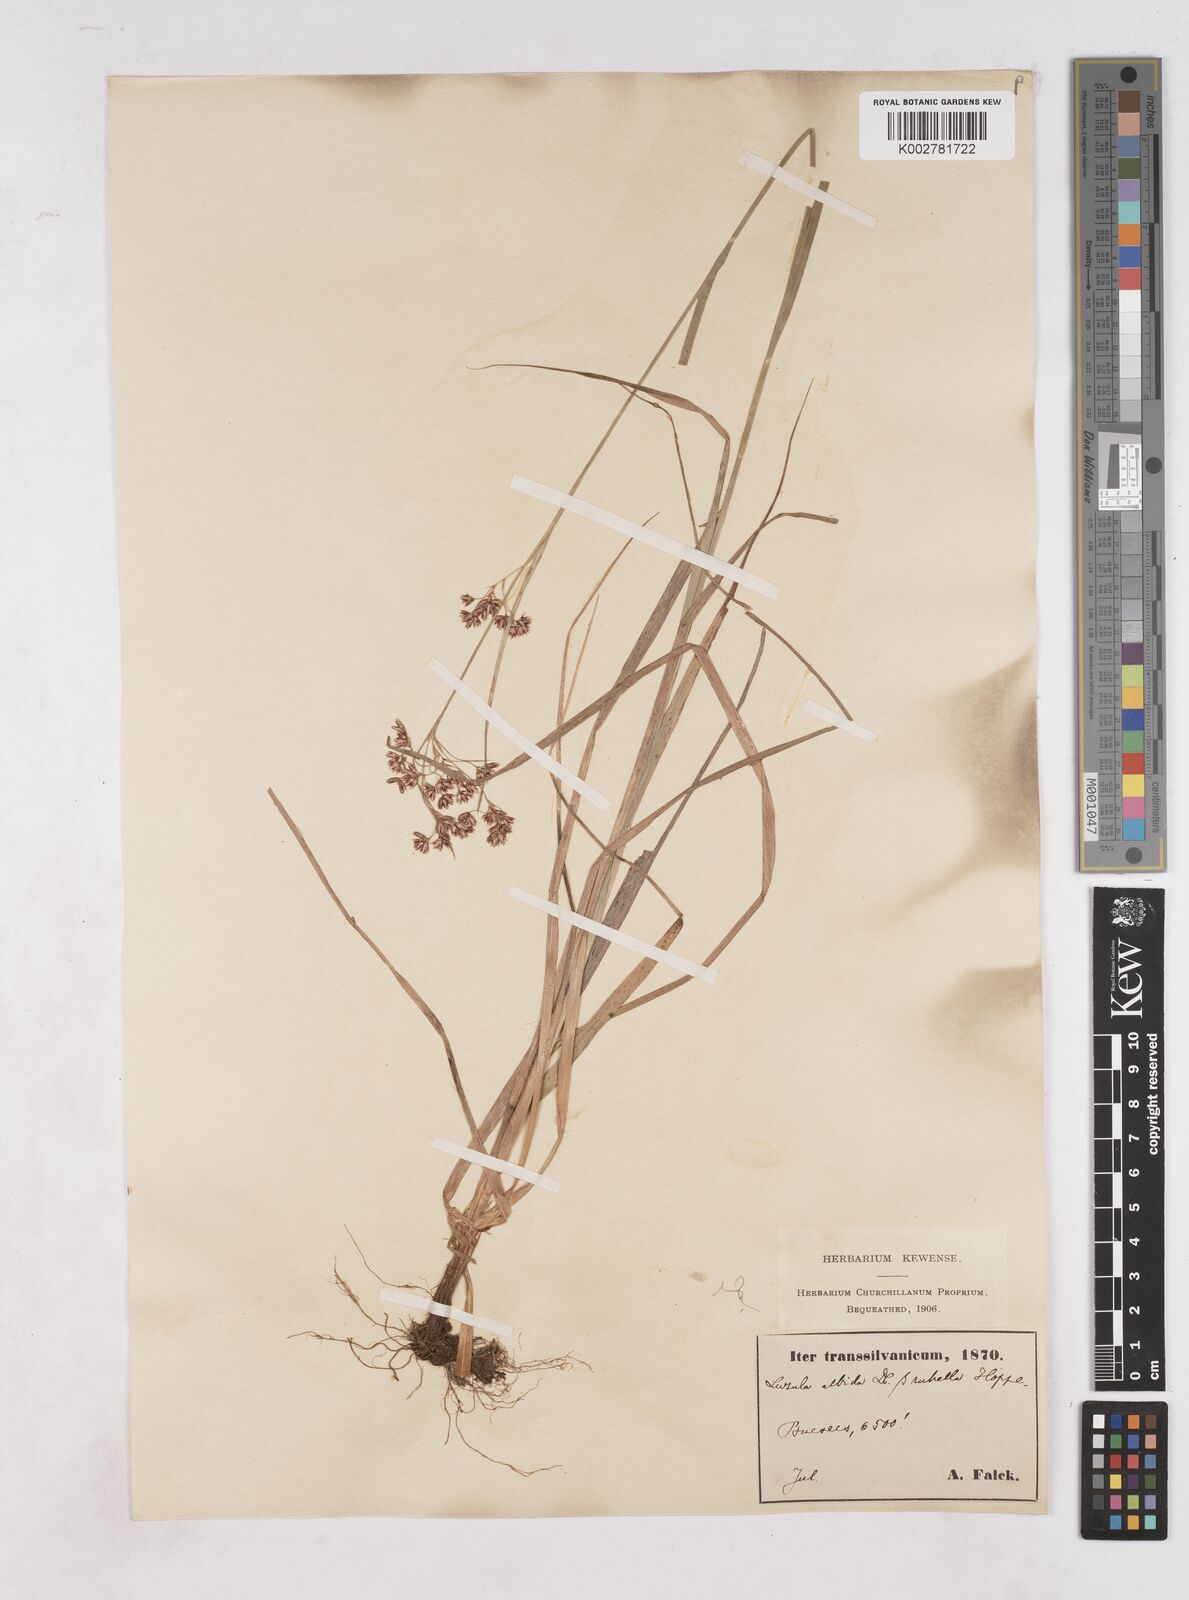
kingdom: Plantae
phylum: Tracheophyta
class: Liliopsida
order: Poales
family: Juncaceae
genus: Luzula
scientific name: Luzula luzuloides
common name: White wood-rush
